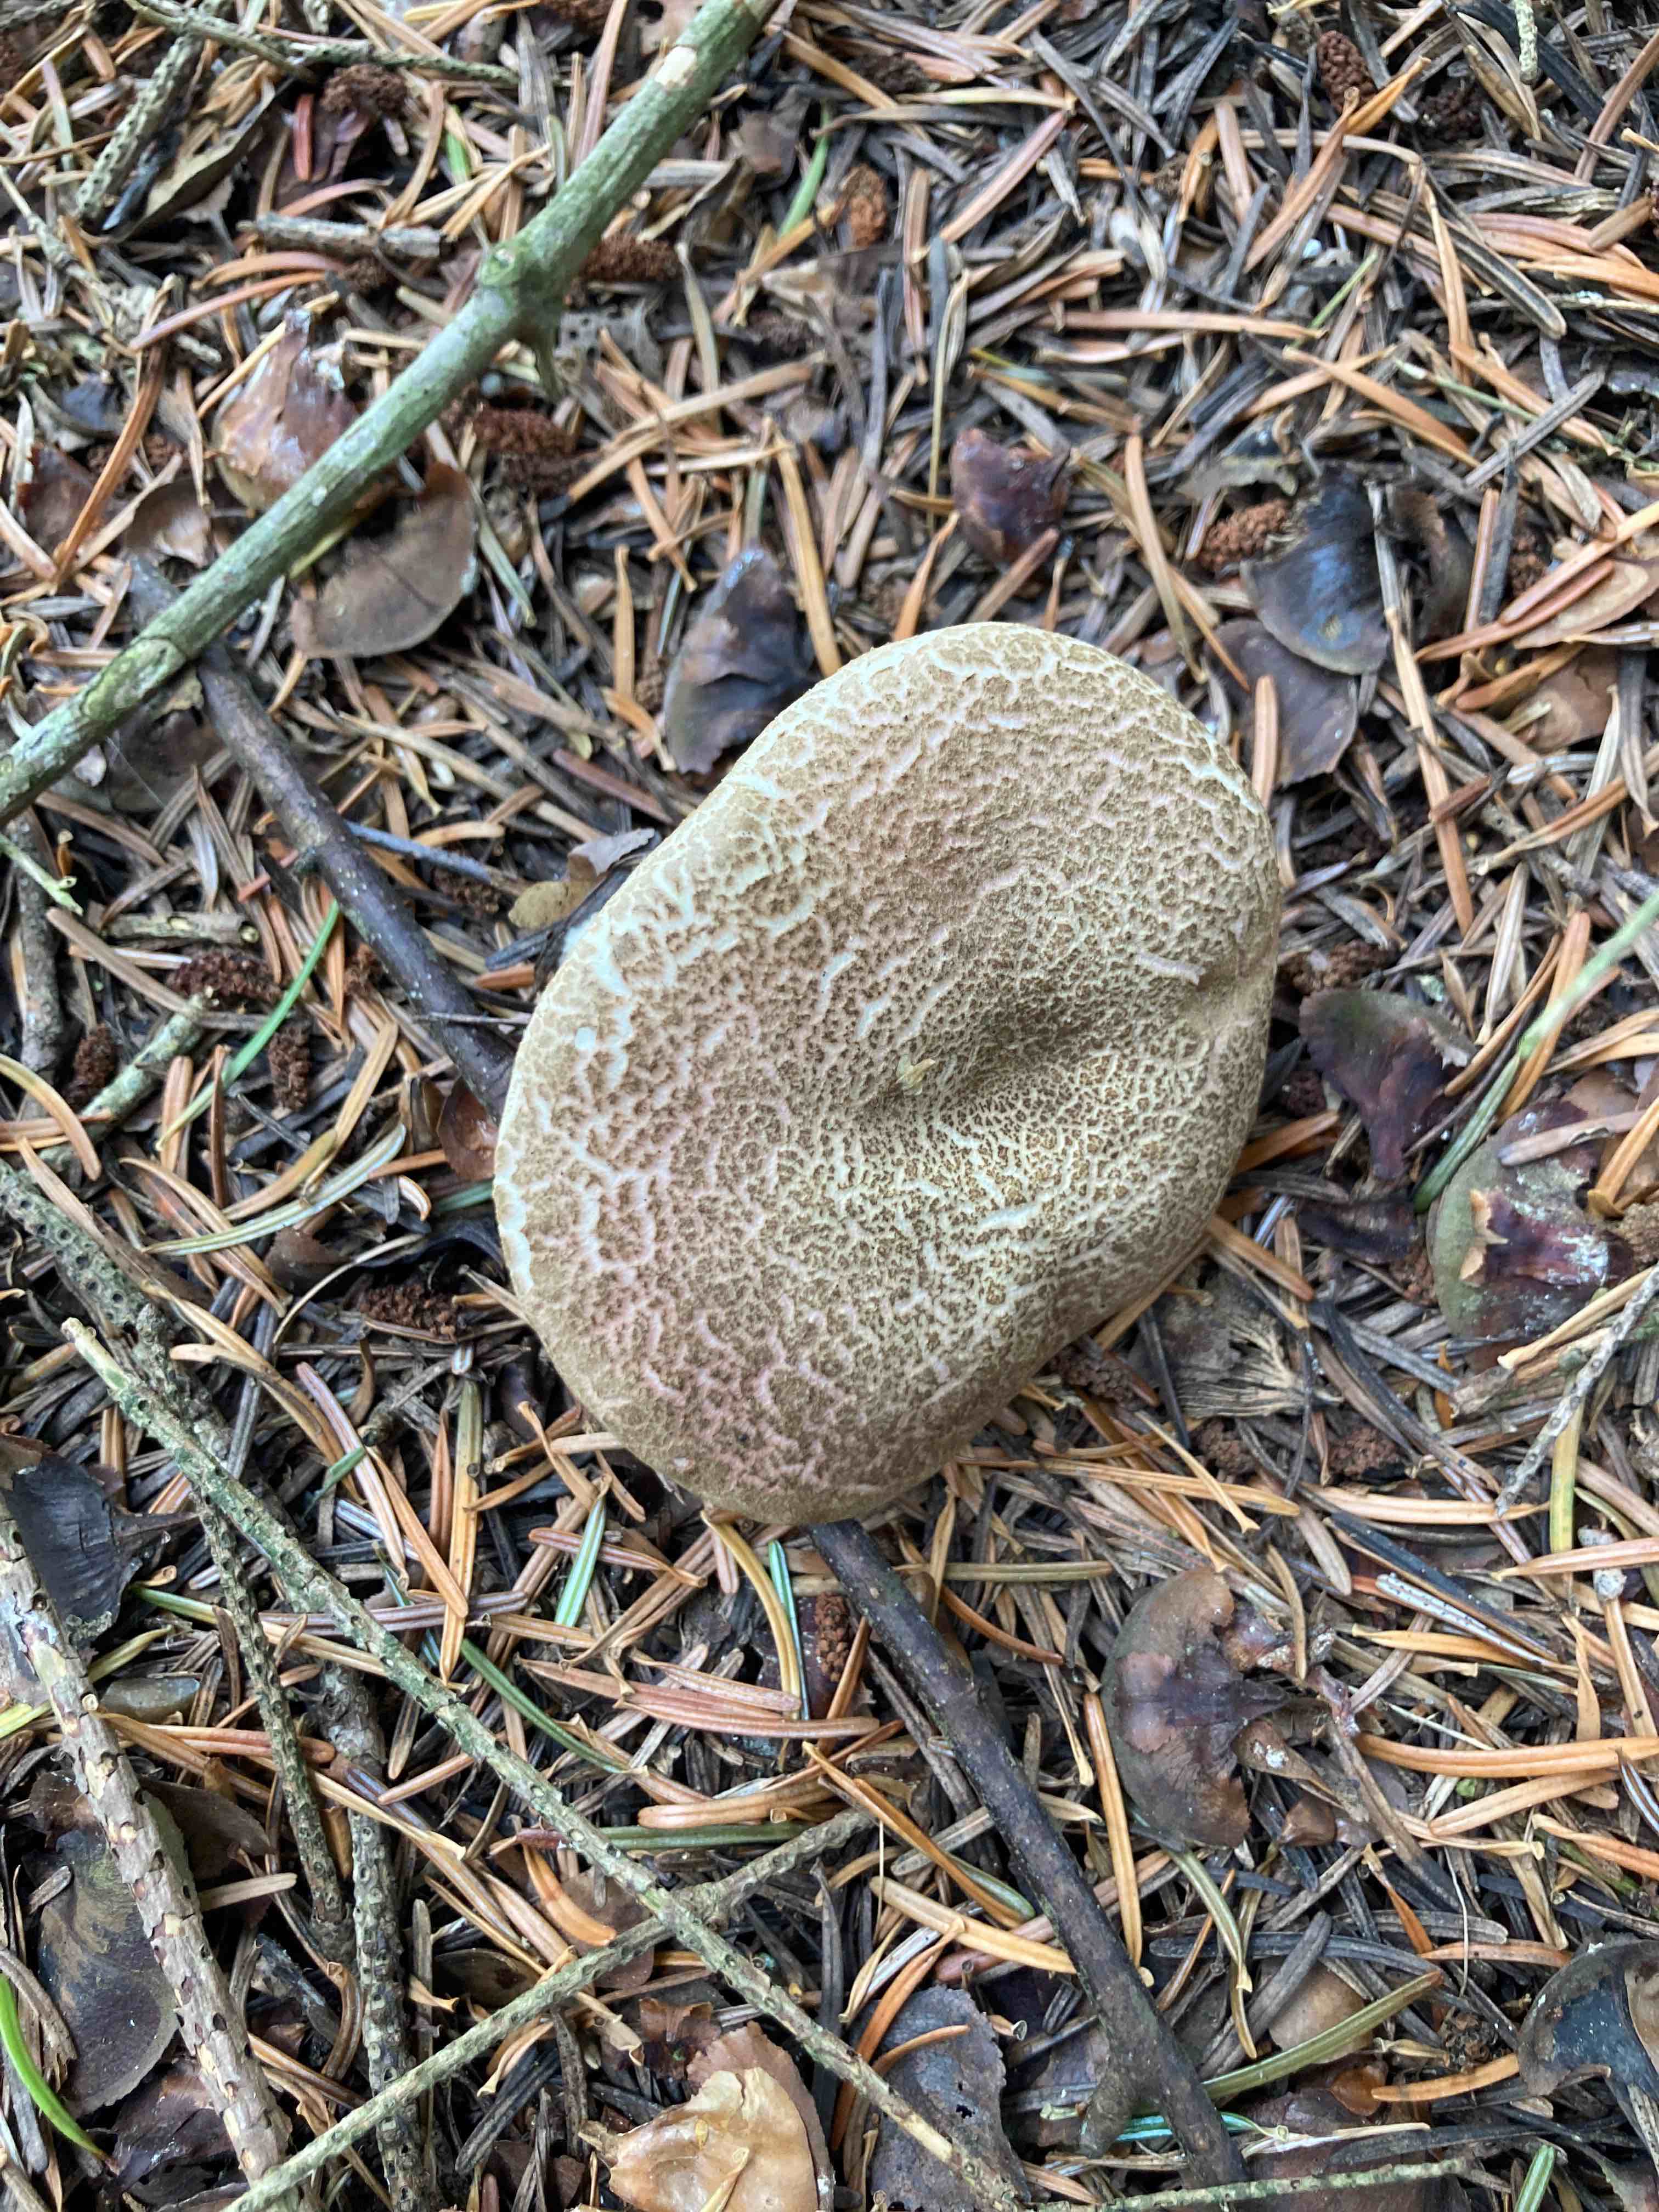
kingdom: Fungi
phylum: Basidiomycota
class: Agaricomycetes
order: Boletales
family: Boletaceae
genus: Xerocomellus
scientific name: Xerocomellus porosporus
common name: hvidsprukken rørhat
